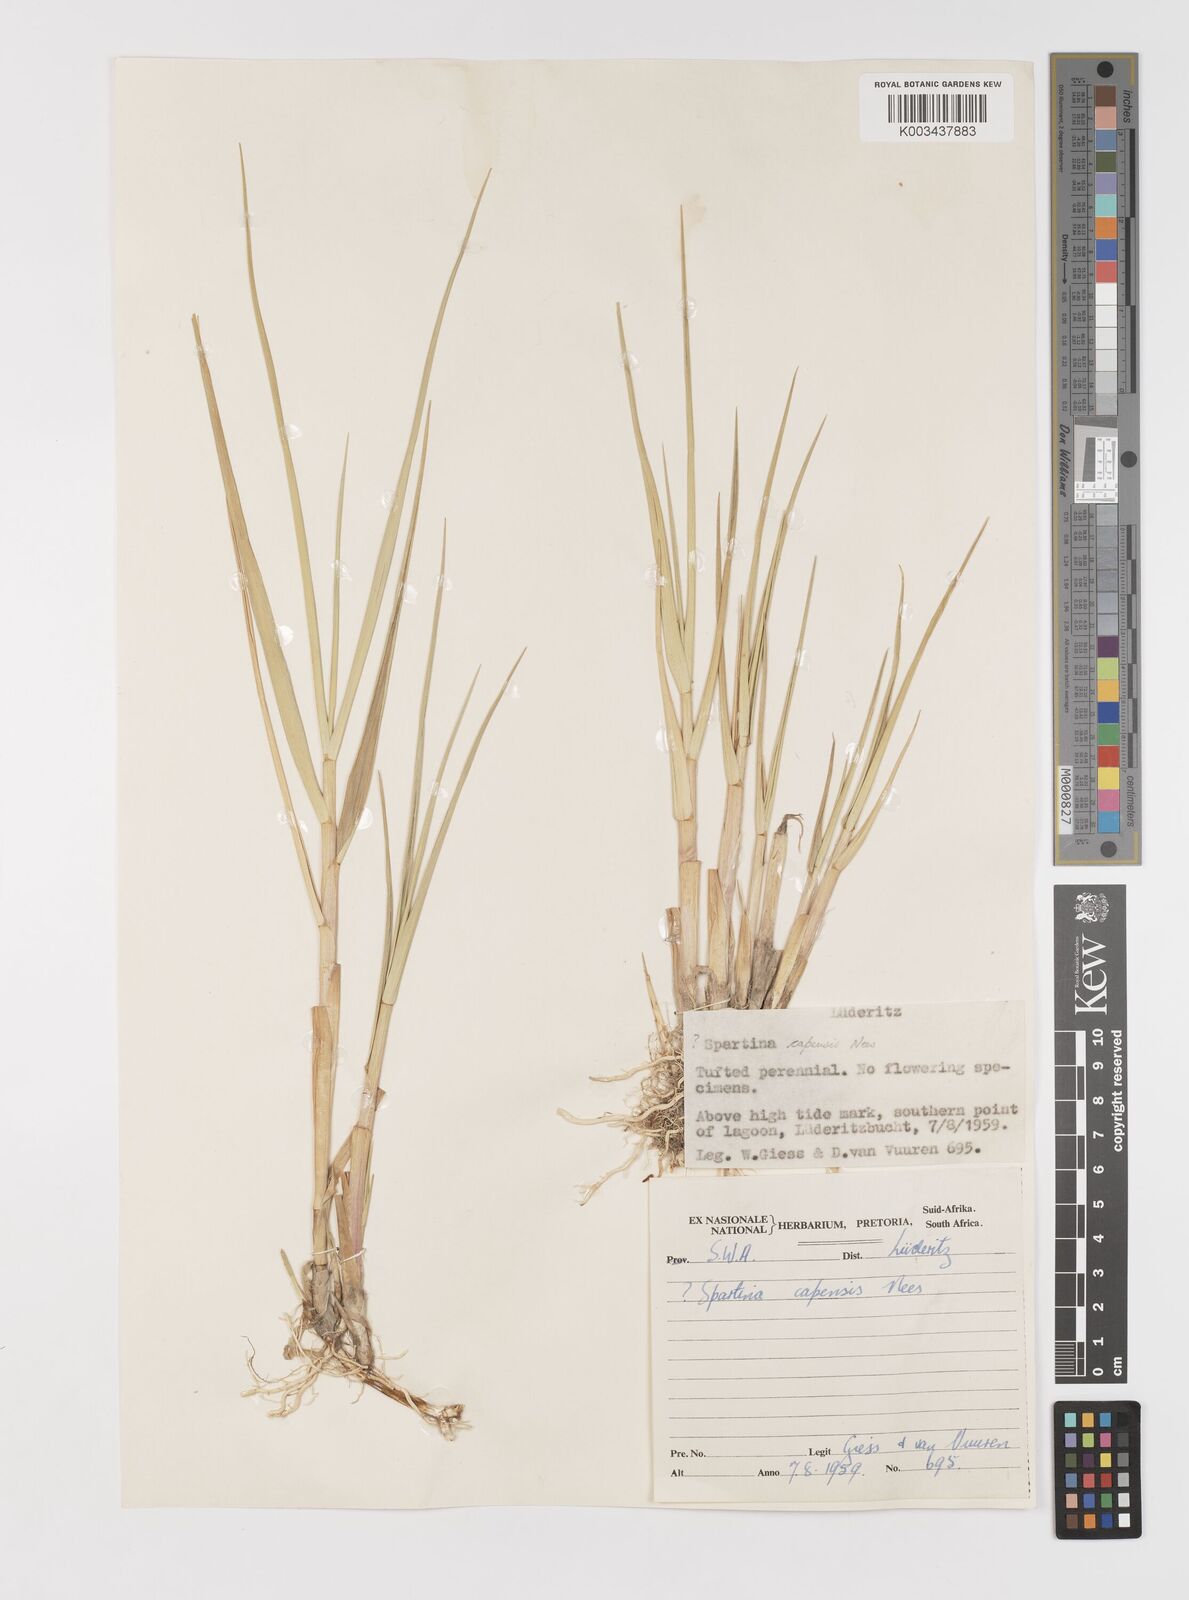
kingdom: Plantae
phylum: Tracheophyta
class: Liliopsida
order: Poales
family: Poaceae
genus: Sporobolus
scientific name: Sporobolus maritimus
